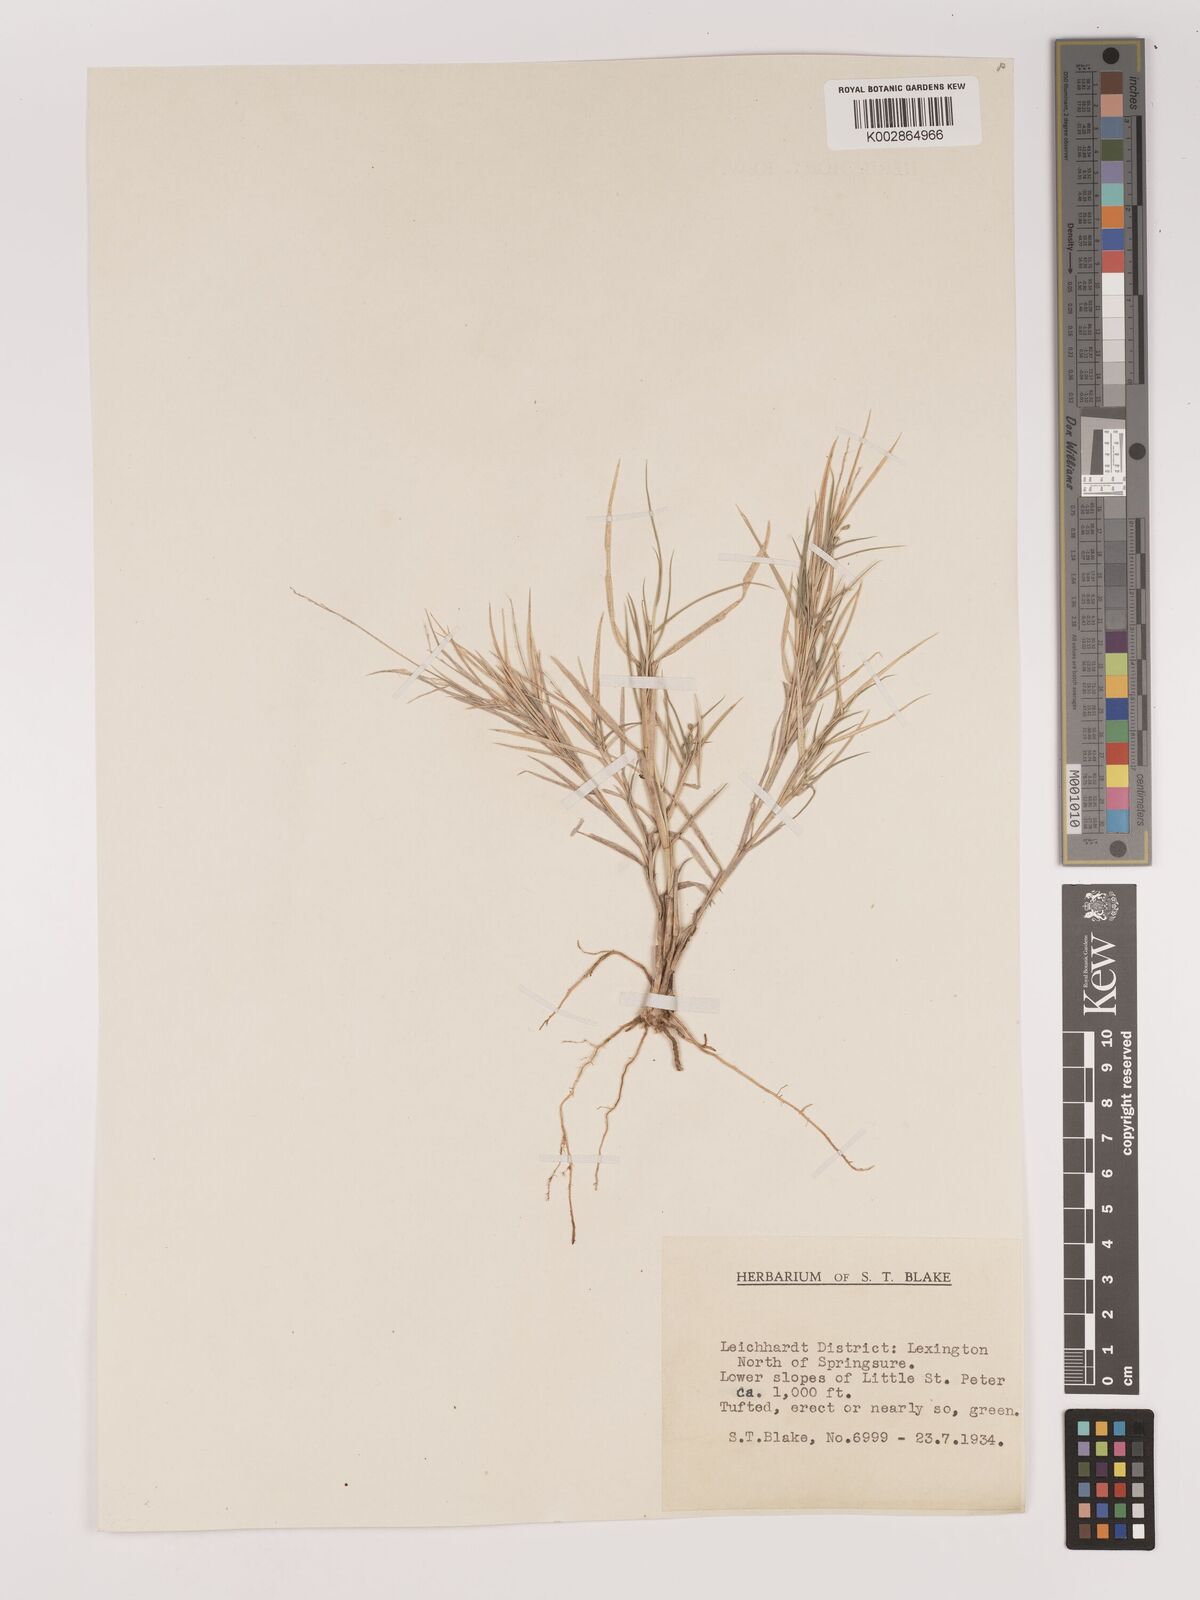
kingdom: Plantae
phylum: Tracheophyta
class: Liliopsida
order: Poales
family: Poaceae
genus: Setaria
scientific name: Setaria
